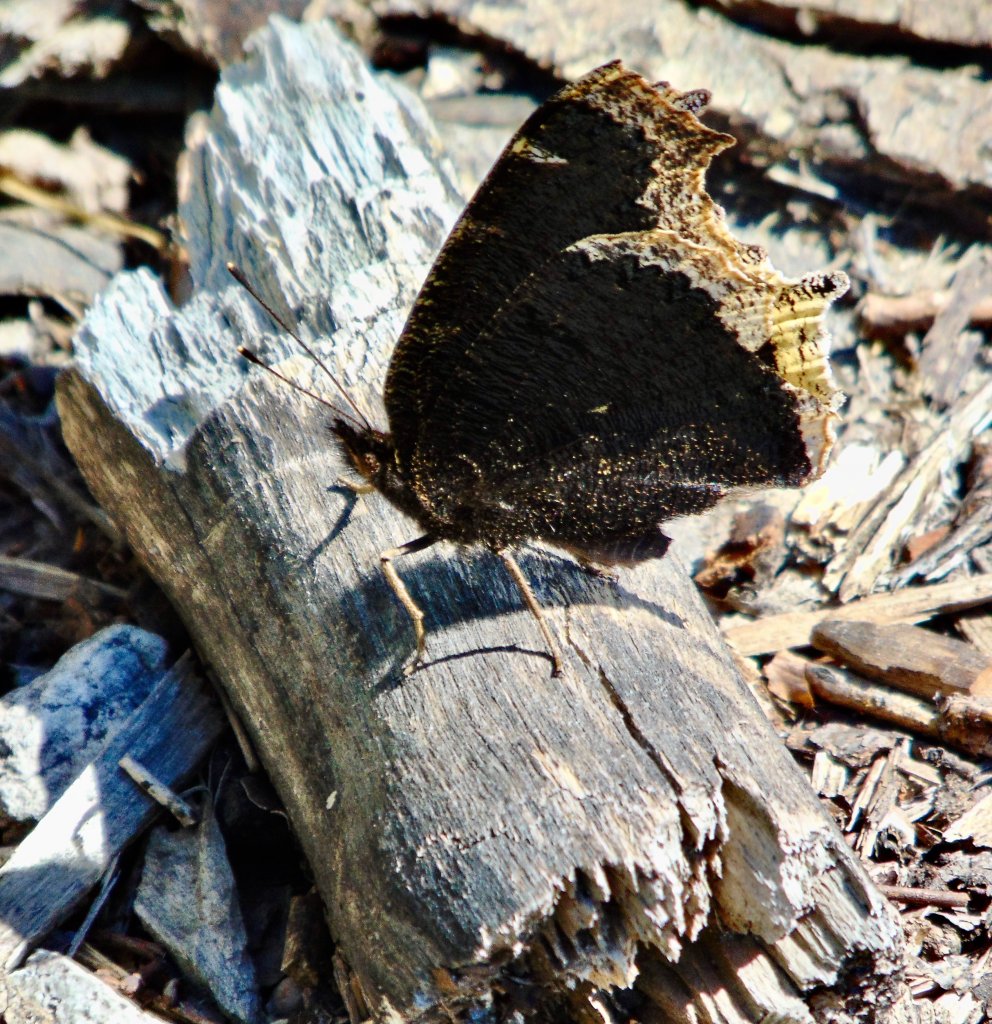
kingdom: Animalia
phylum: Arthropoda
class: Insecta
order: Lepidoptera
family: Nymphalidae
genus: Nymphalis
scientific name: Nymphalis antiopa
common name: Mourning Cloak
